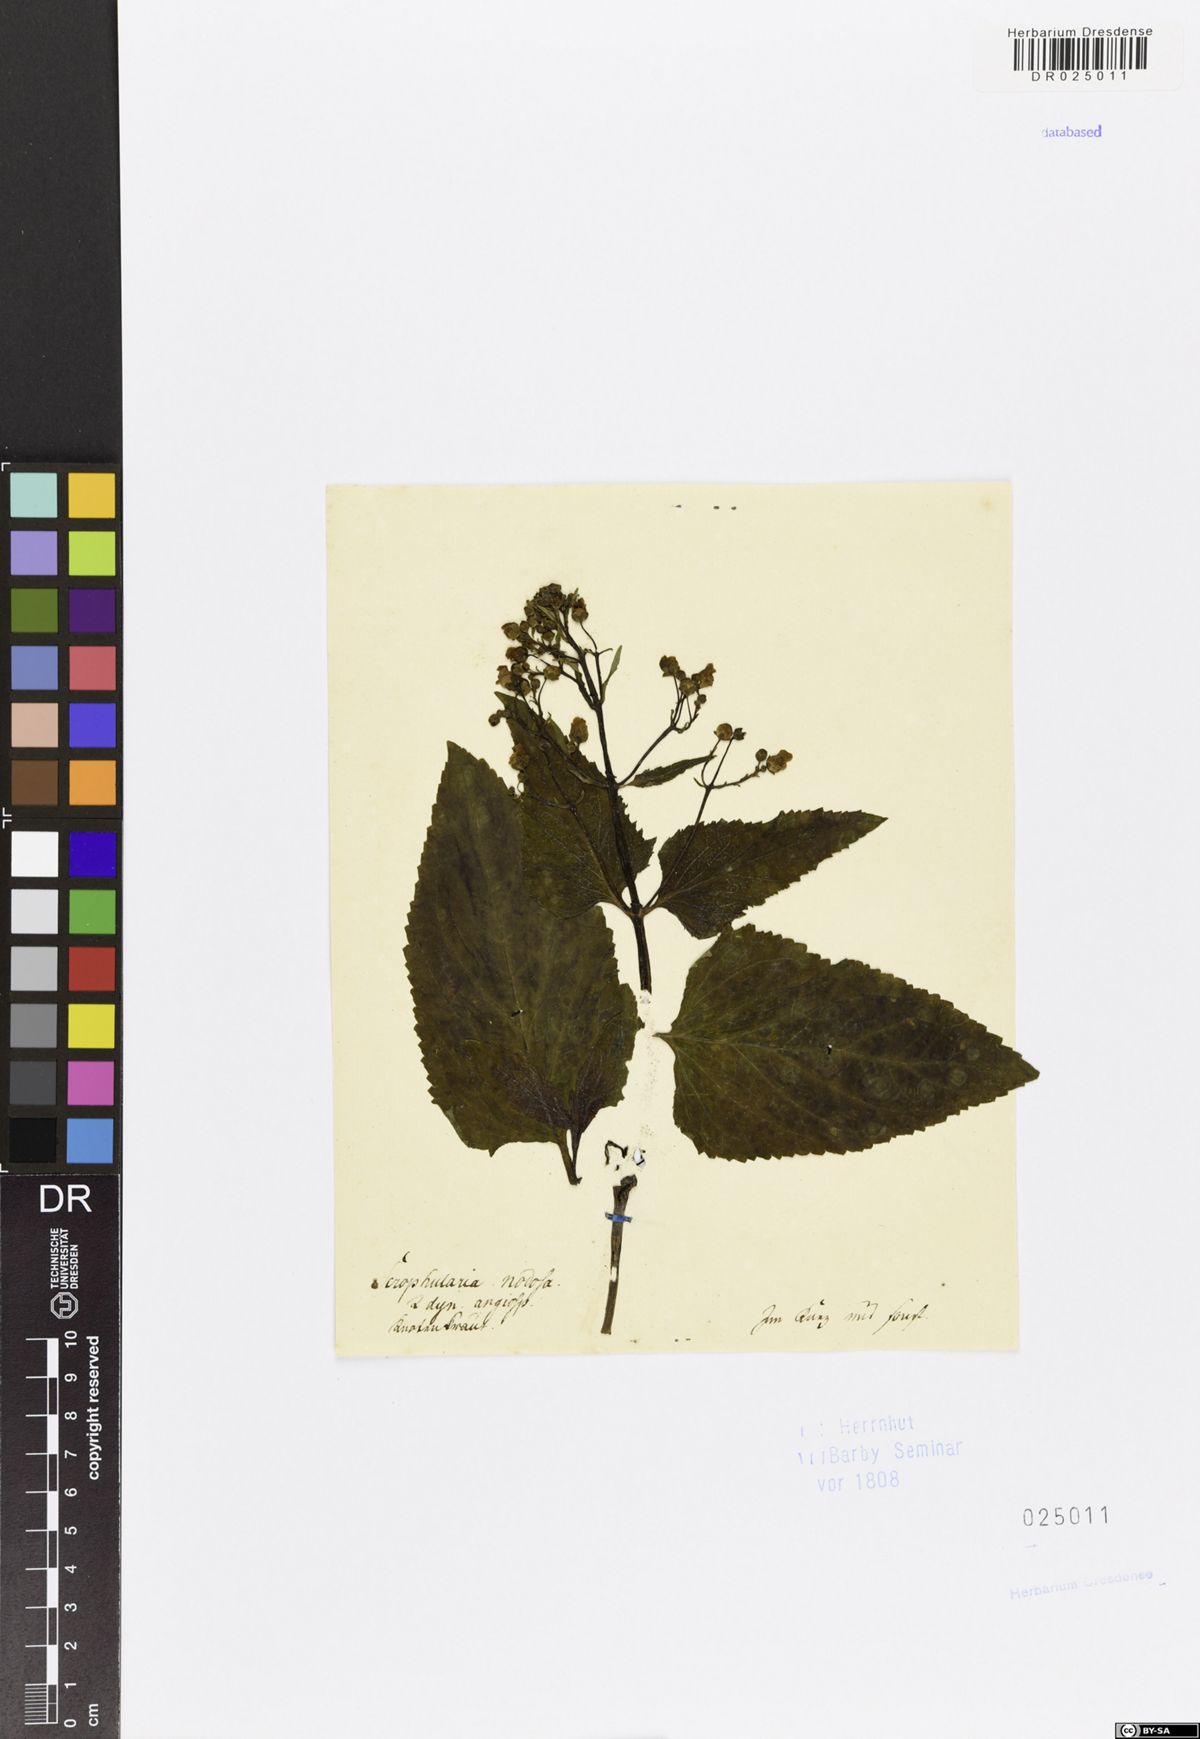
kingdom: Plantae
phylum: Tracheophyta
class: Magnoliopsida
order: Lamiales
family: Scrophulariaceae
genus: Scrophularia
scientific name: Scrophularia nodosa
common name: Common figwort
